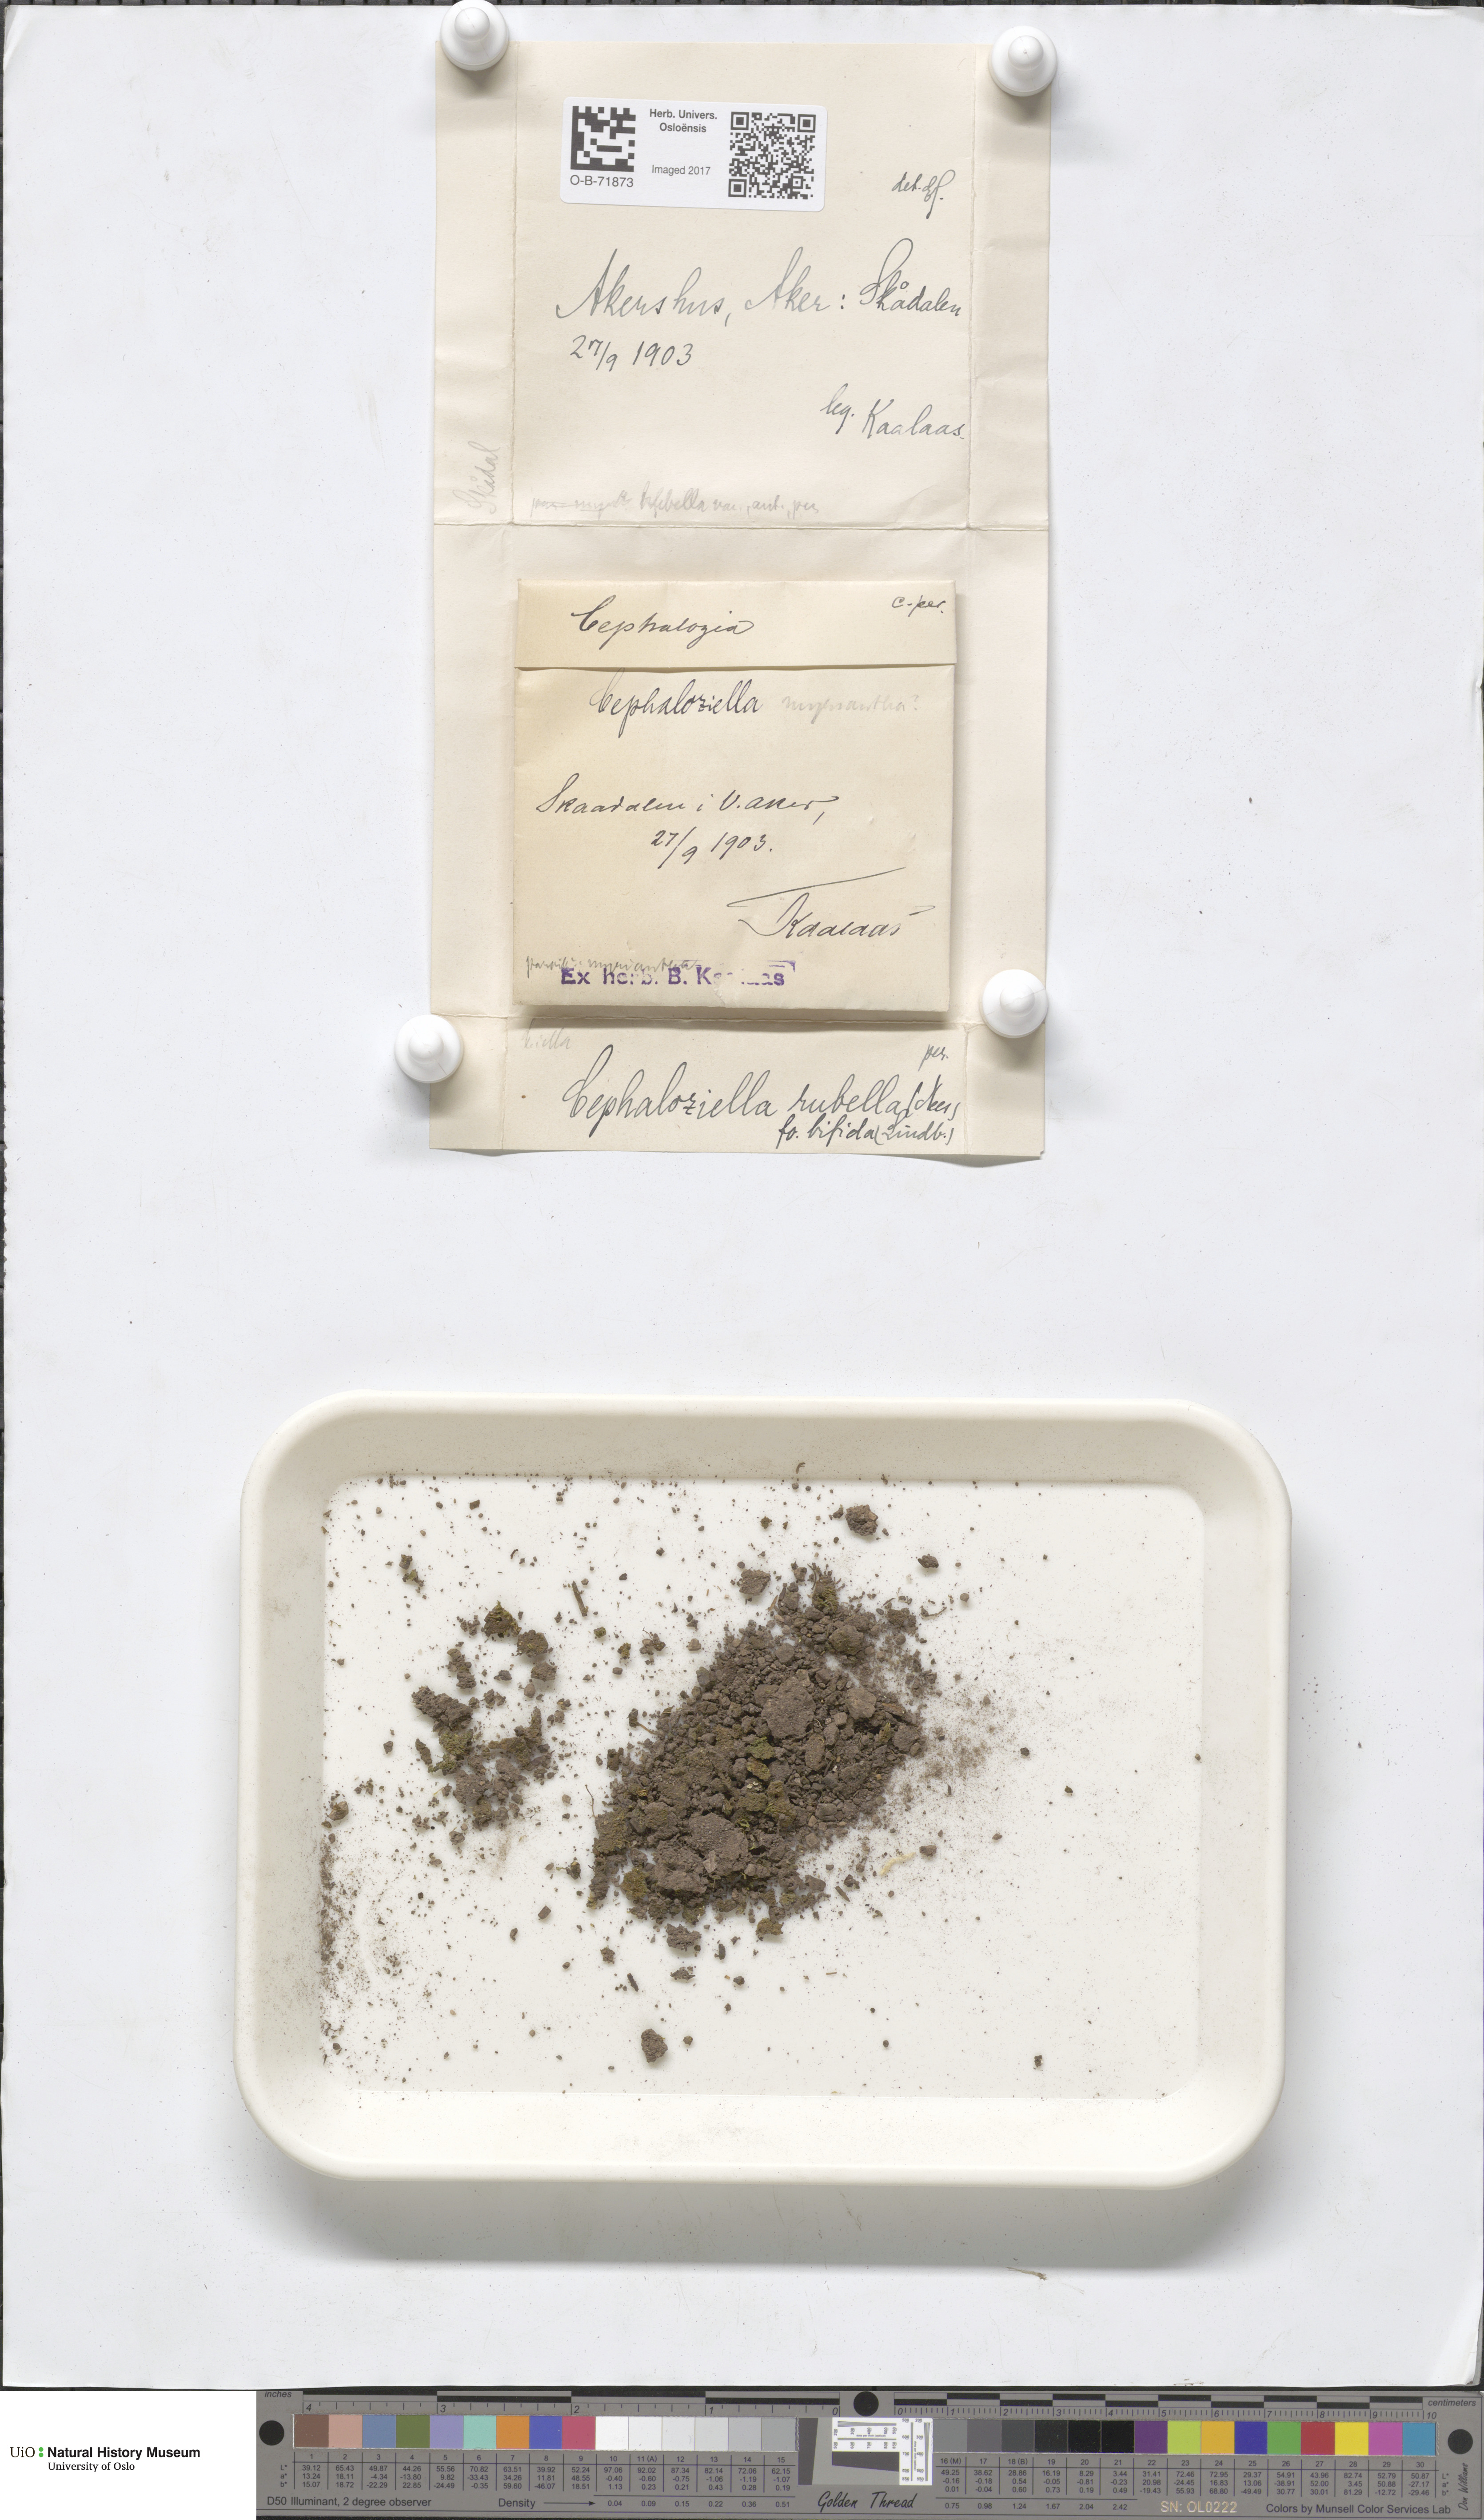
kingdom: Plantae
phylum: Marchantiophyta
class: Jungermanniopsida
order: Jungermanniales
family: Cephaloziellaceae
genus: Cephaloziella
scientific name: Cephaloziella rubella
